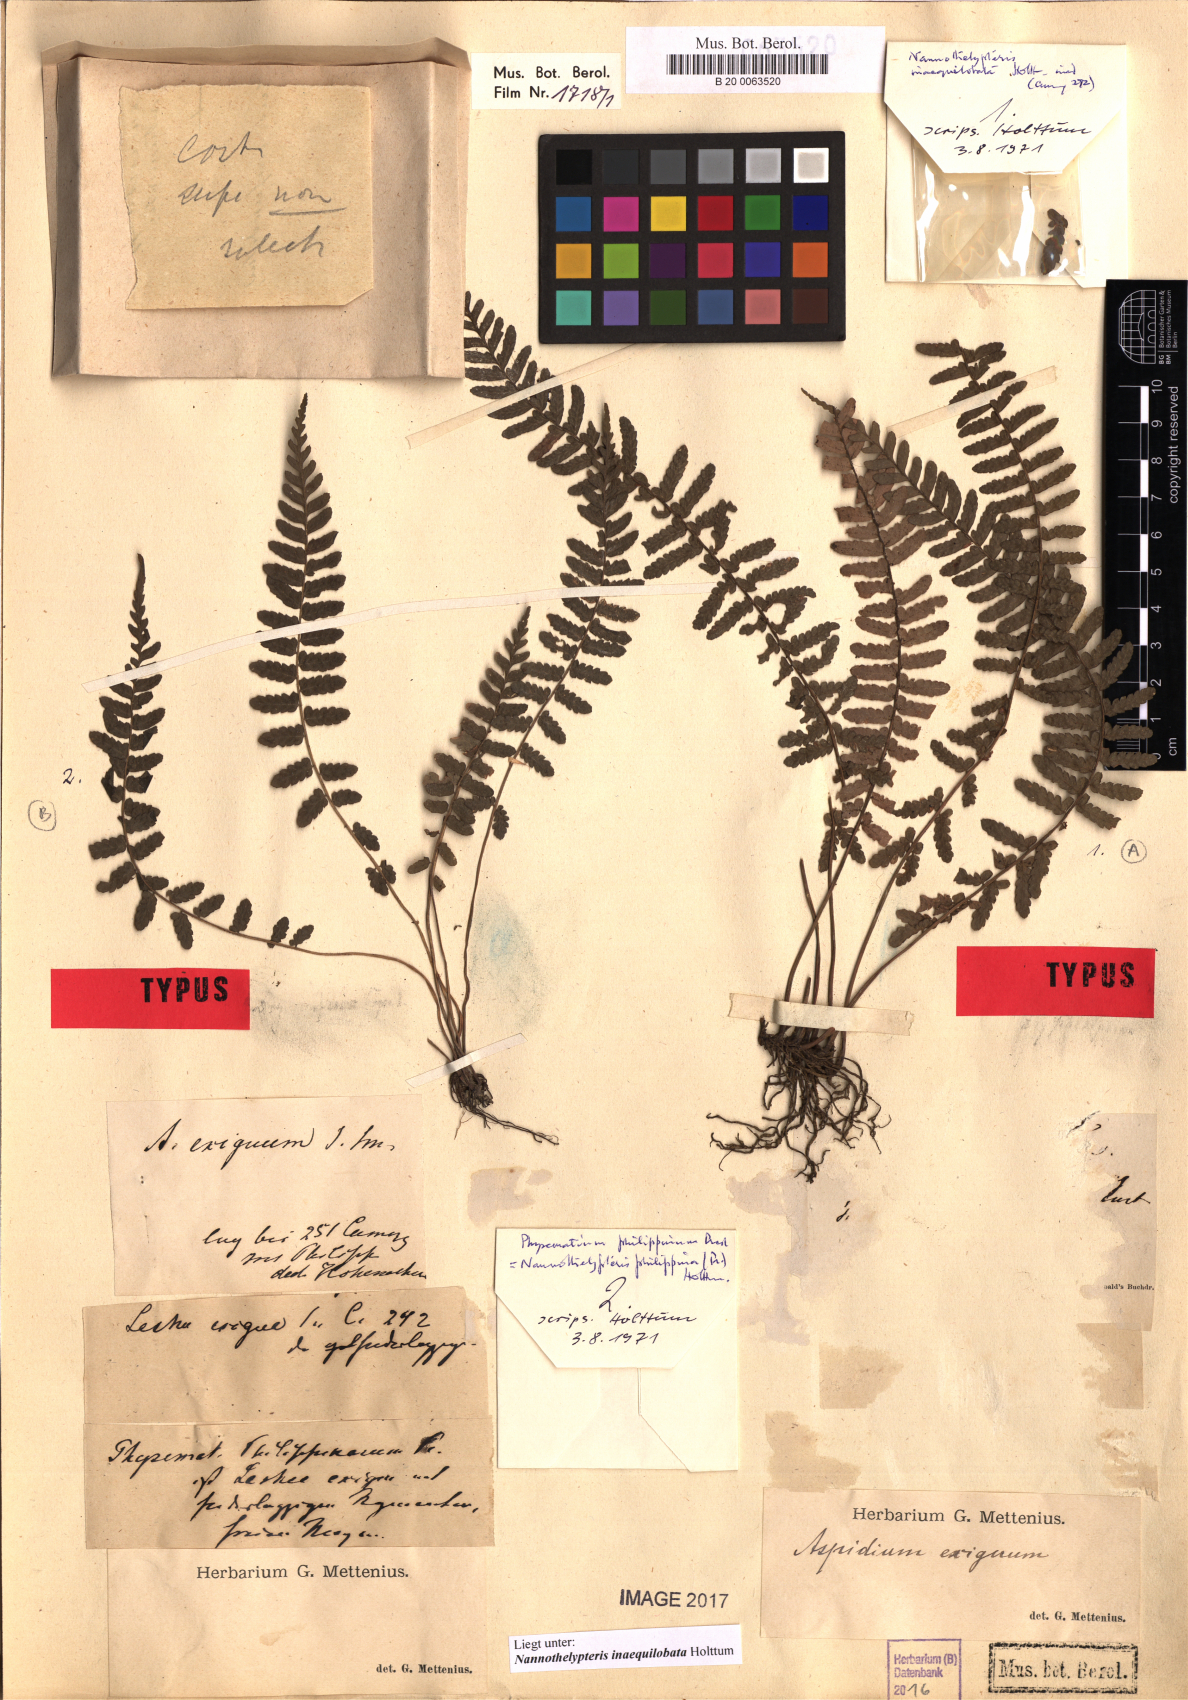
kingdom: Plantae
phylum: Tracheophyta
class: Polypodiopsida
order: Polypodiales
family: Thelypteridaceae
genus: Pronephrium
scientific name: Pronephrium inaequilobatum
